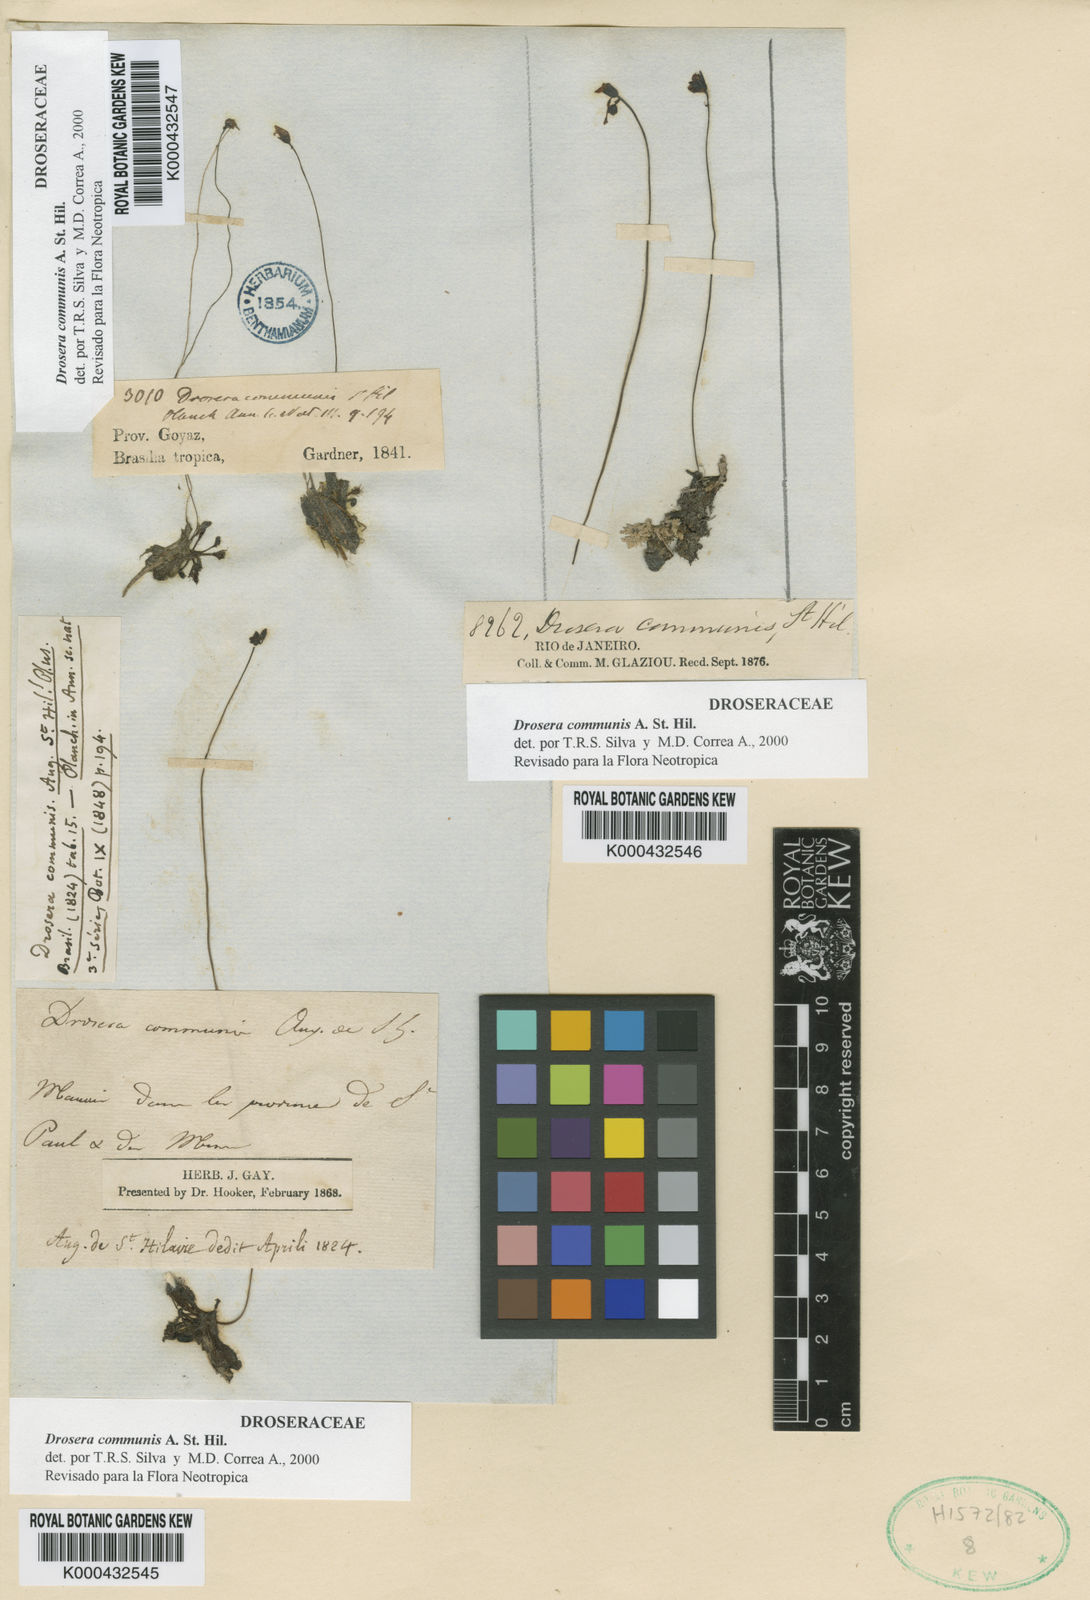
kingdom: Plantae
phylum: Tracheophyta
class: Magnoliopsida
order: Caryophyllales
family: Droseraceae
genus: Drosera
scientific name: Drosera communis
